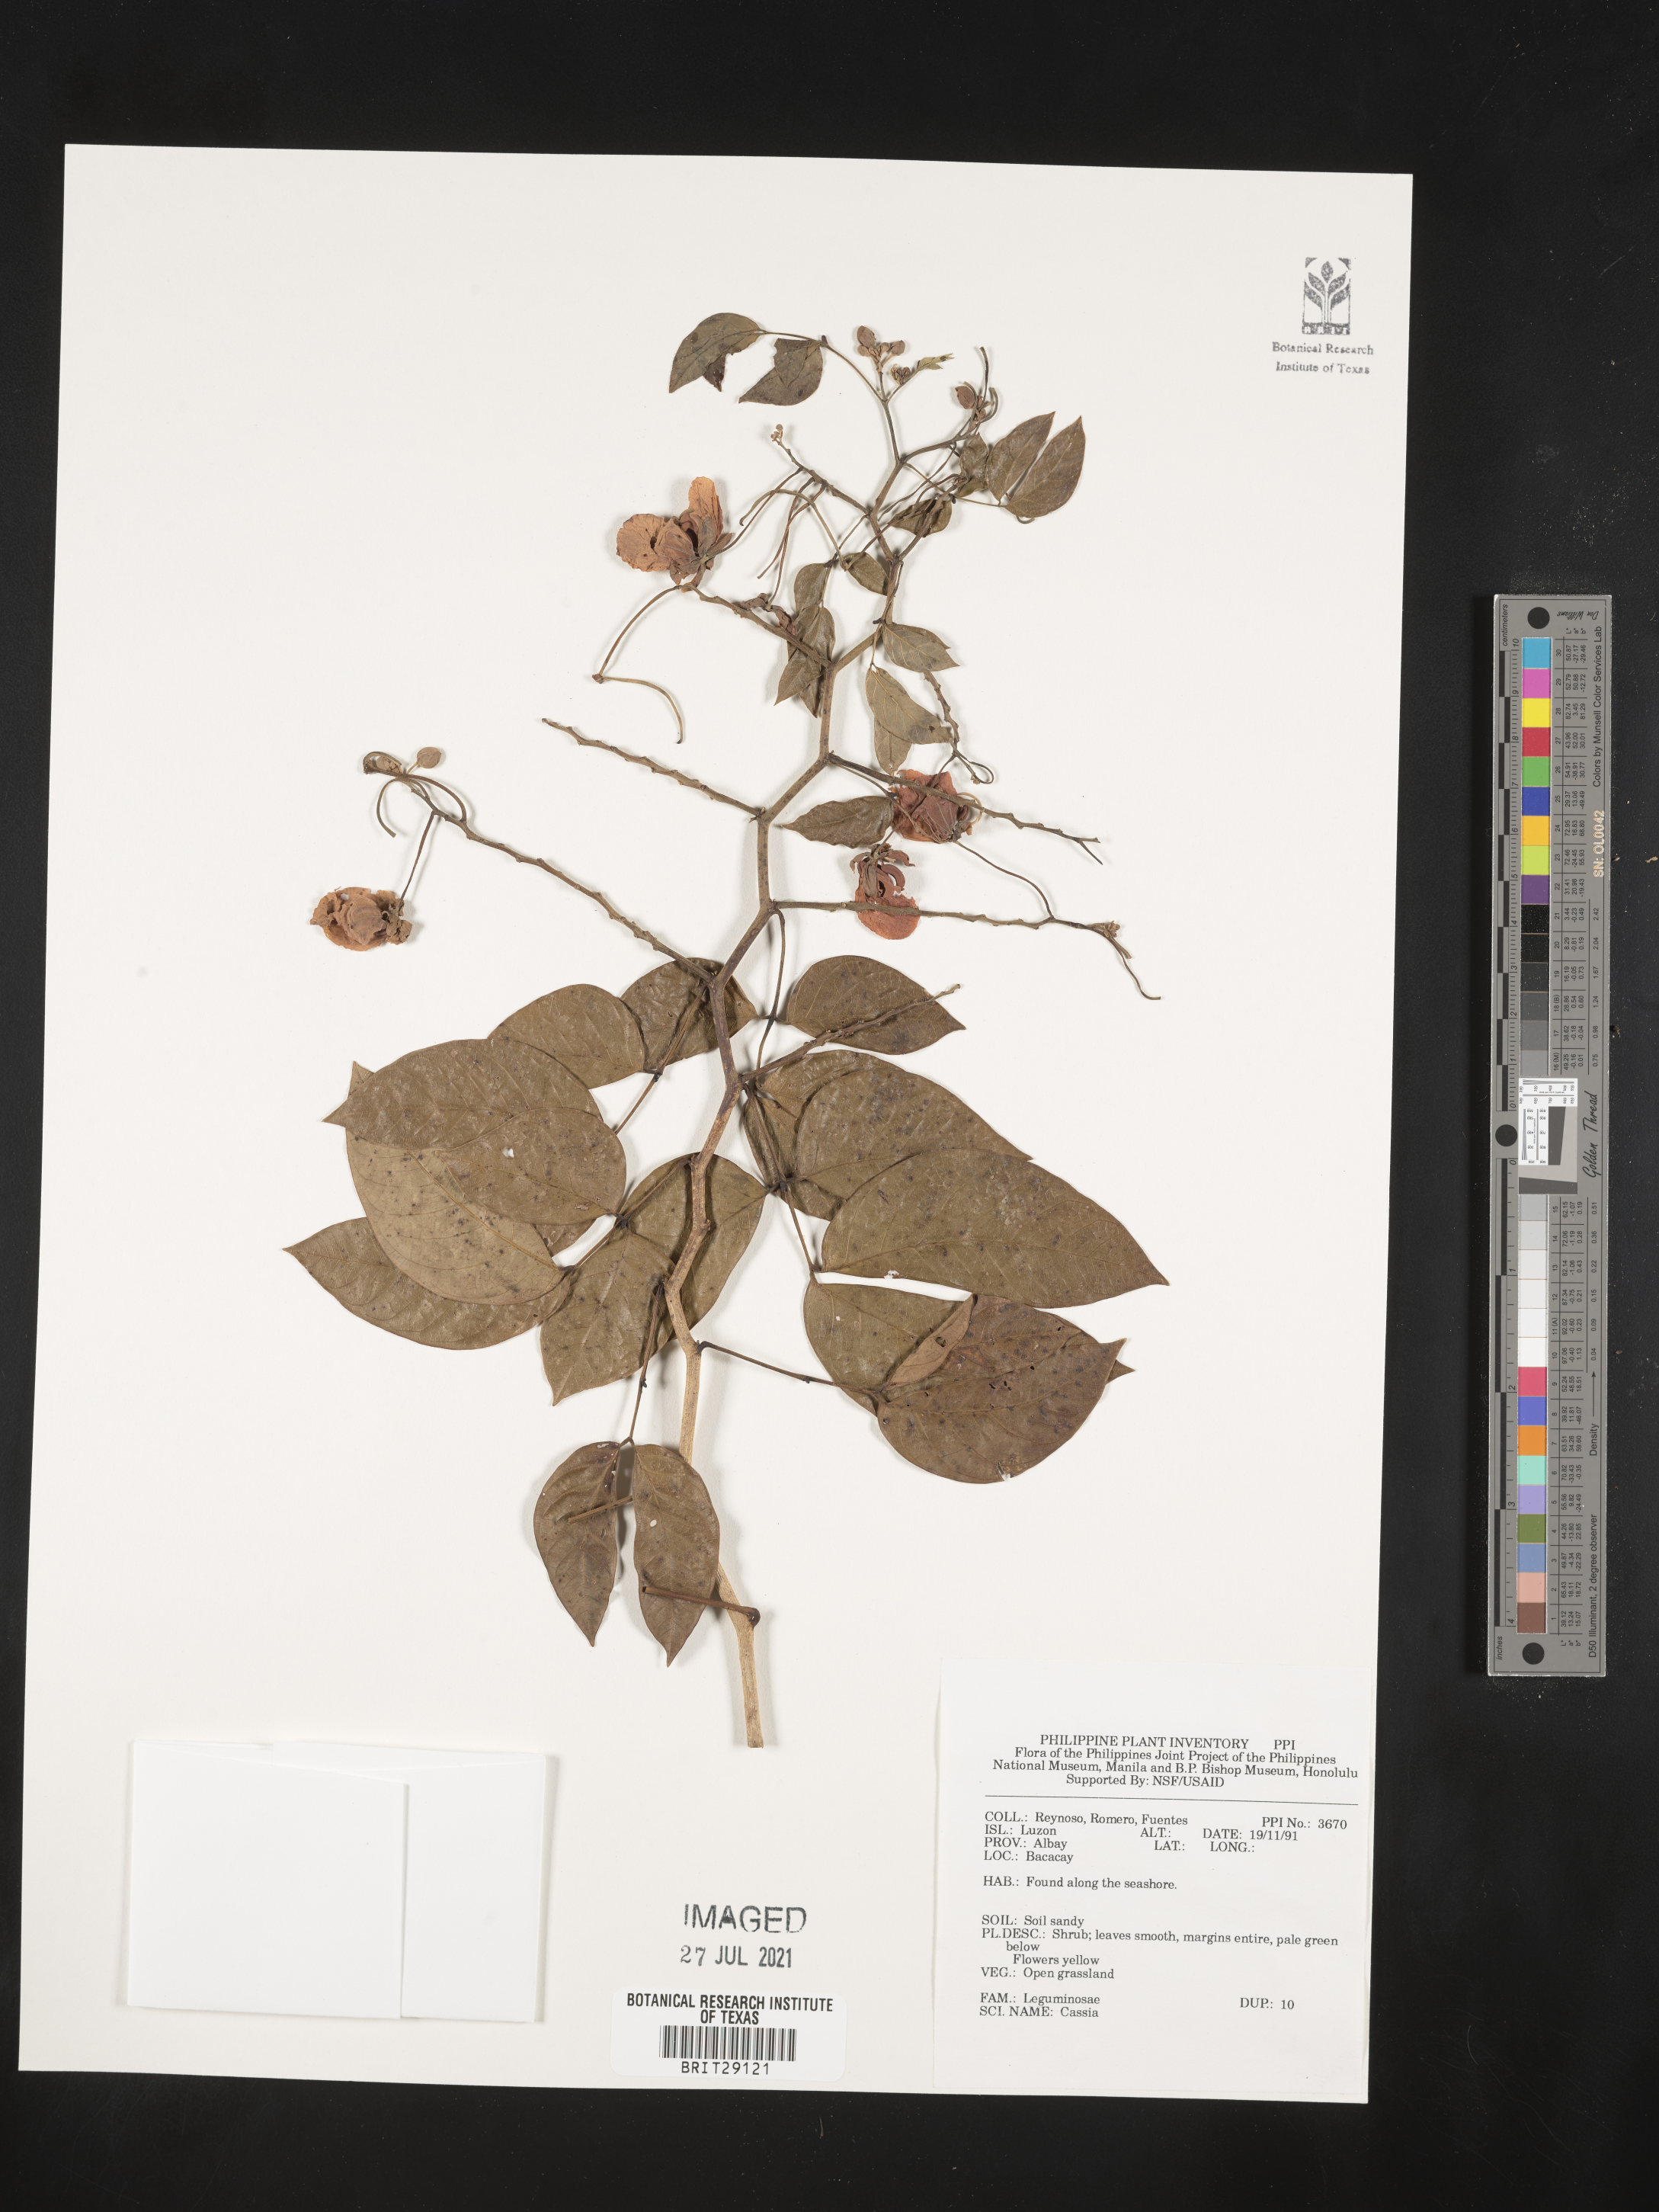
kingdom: Plantae
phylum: Tracheophyta
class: Magnoliopsida
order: Fabales
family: Fabaceae
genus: Cassia
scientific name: Cassia
